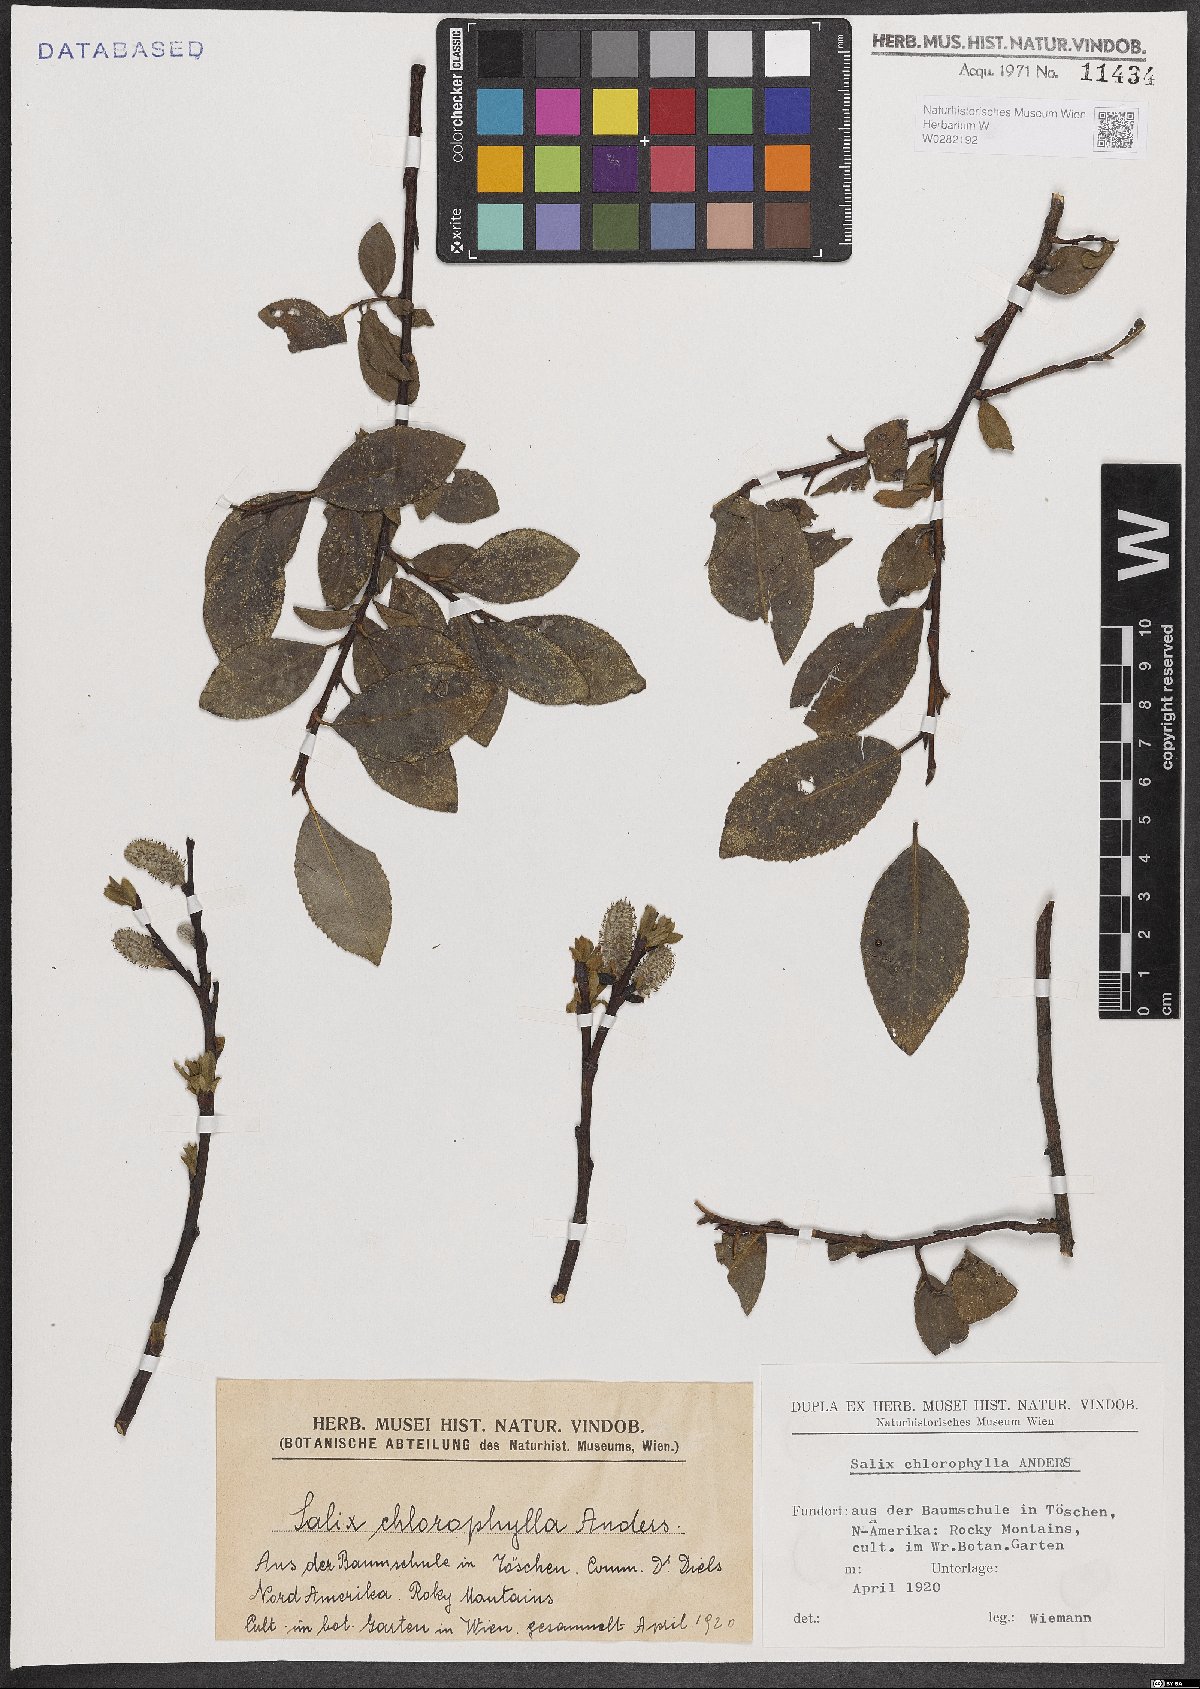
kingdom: Plantae
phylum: Tracheophyta
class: Magnoliopsida
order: Malpighiales
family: Salicaceae
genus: Salix
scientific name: Salix planifolia
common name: Mountain willow
